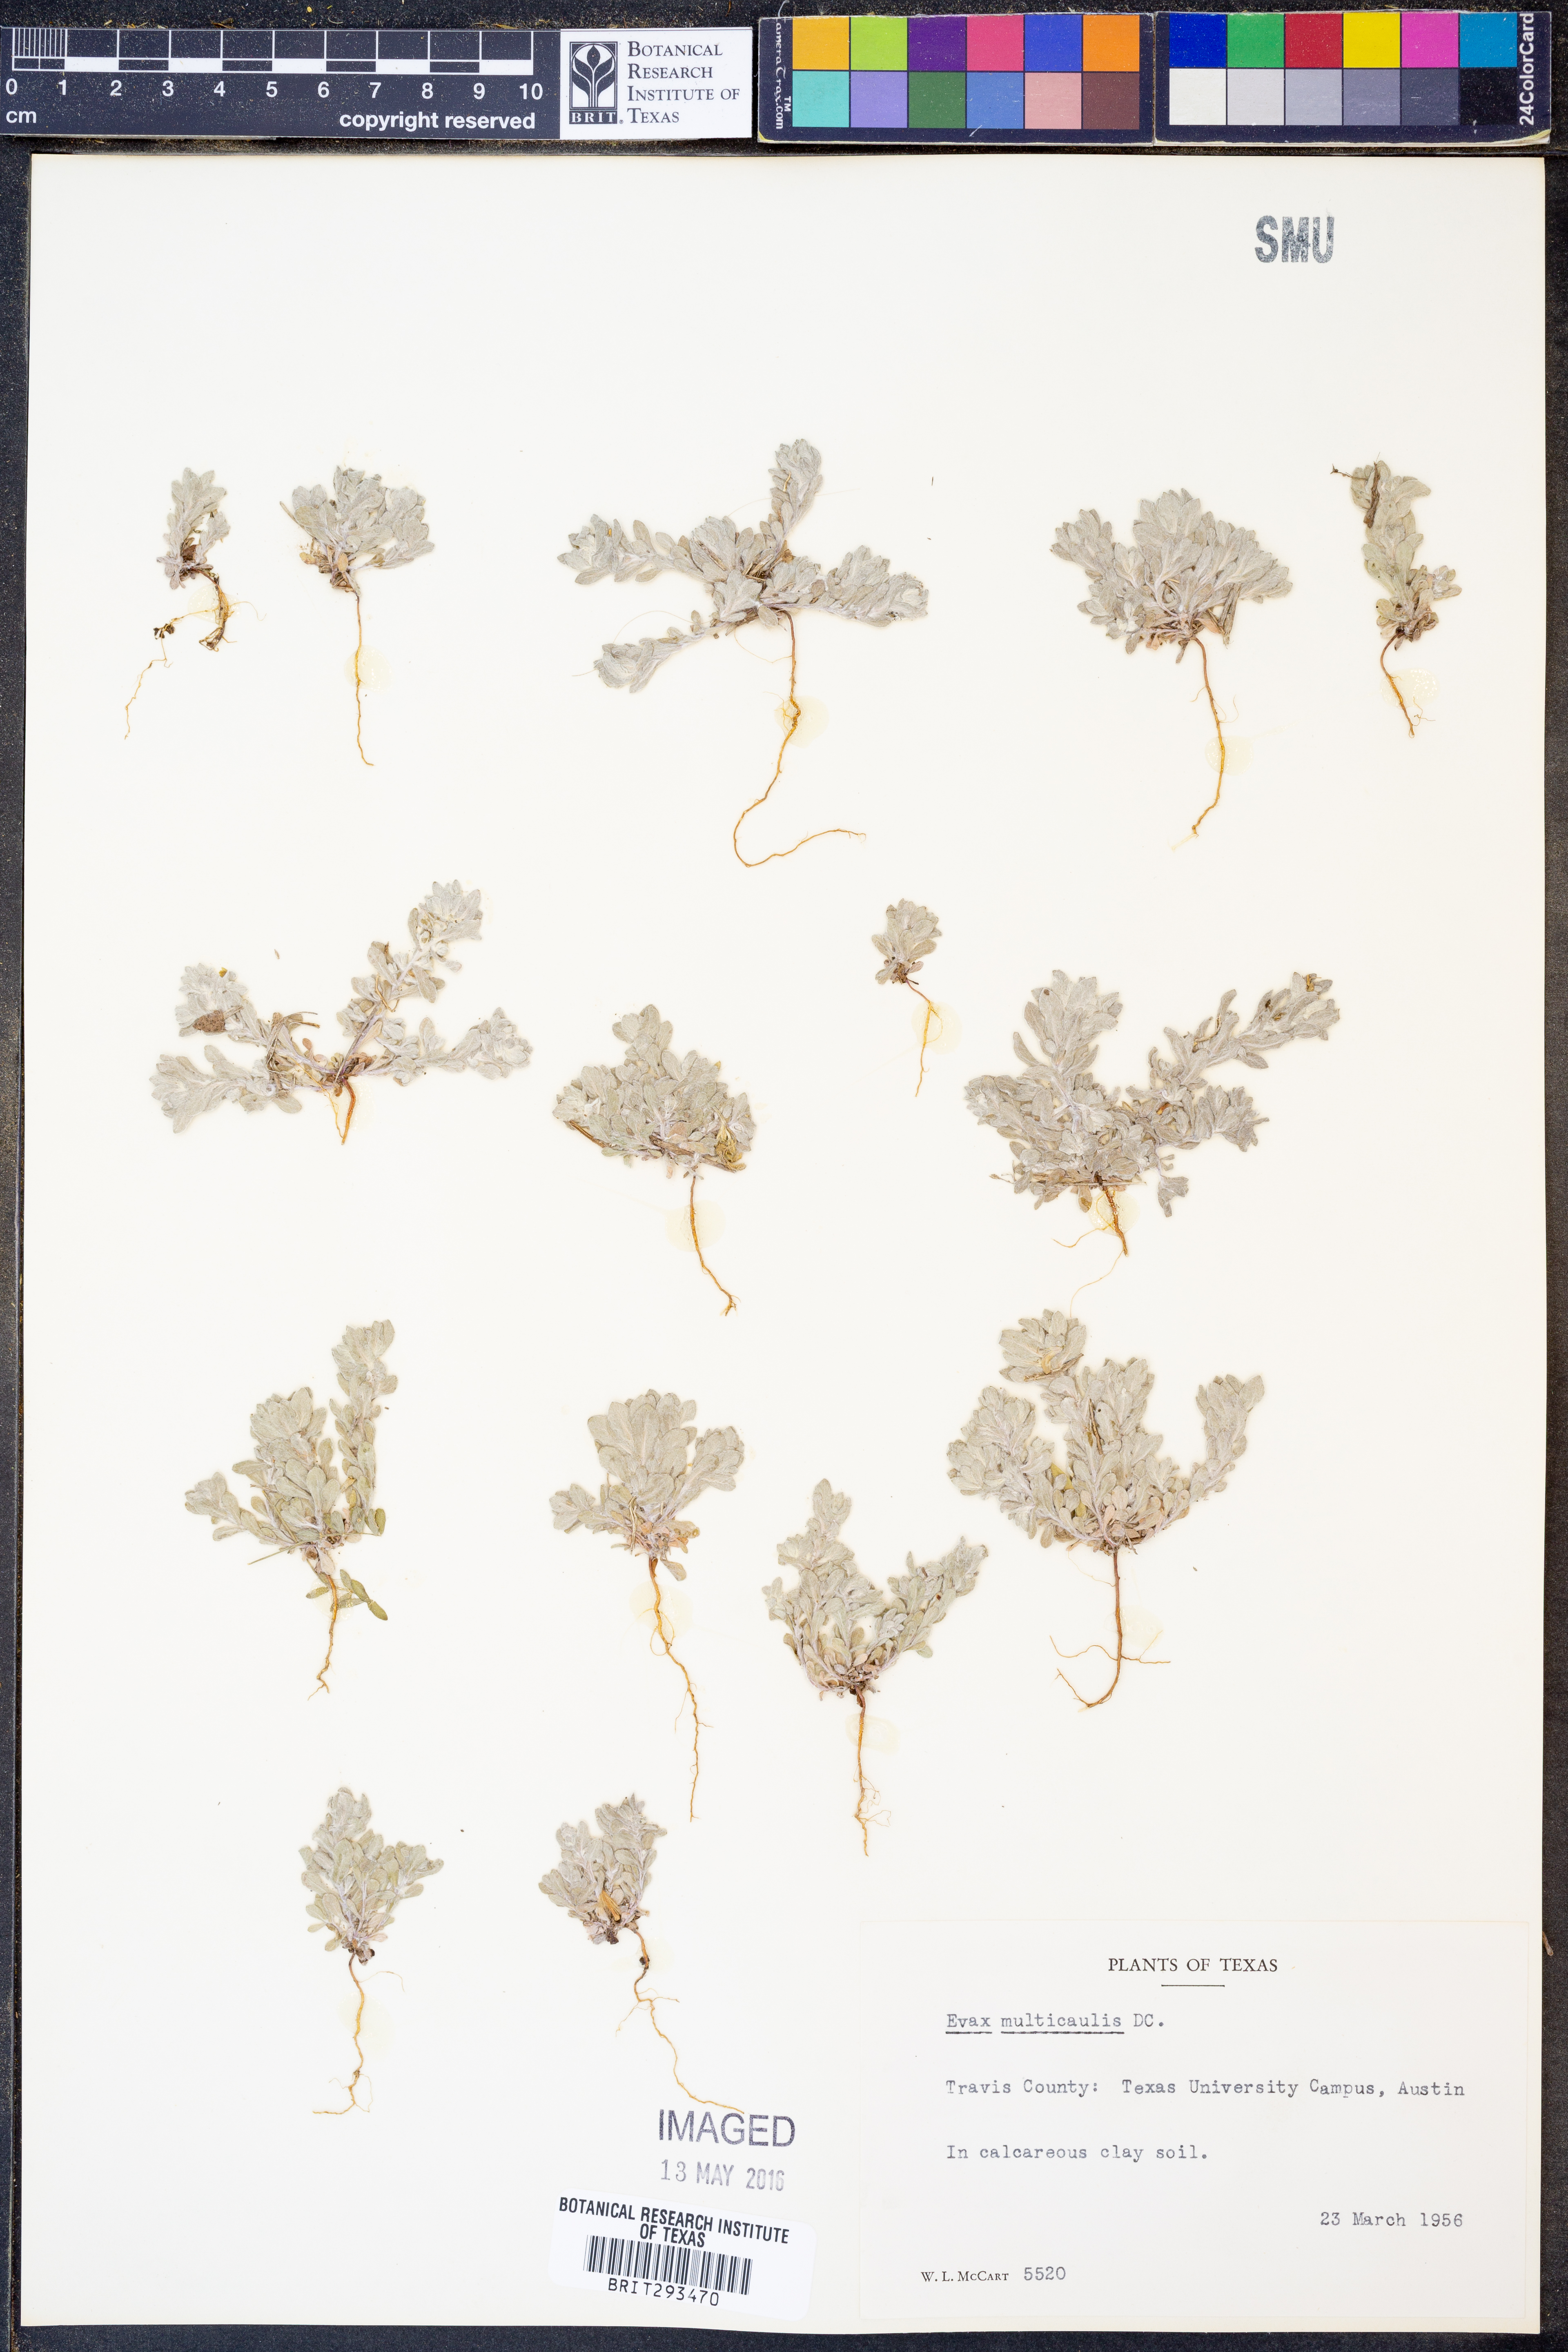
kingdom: Plantae
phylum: Tracheophyta
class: Magnoliopsida
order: Asterales
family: Asteraceae
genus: Diaperia
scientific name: Diaperia verna
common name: Many-stem rabbit-tobacco
